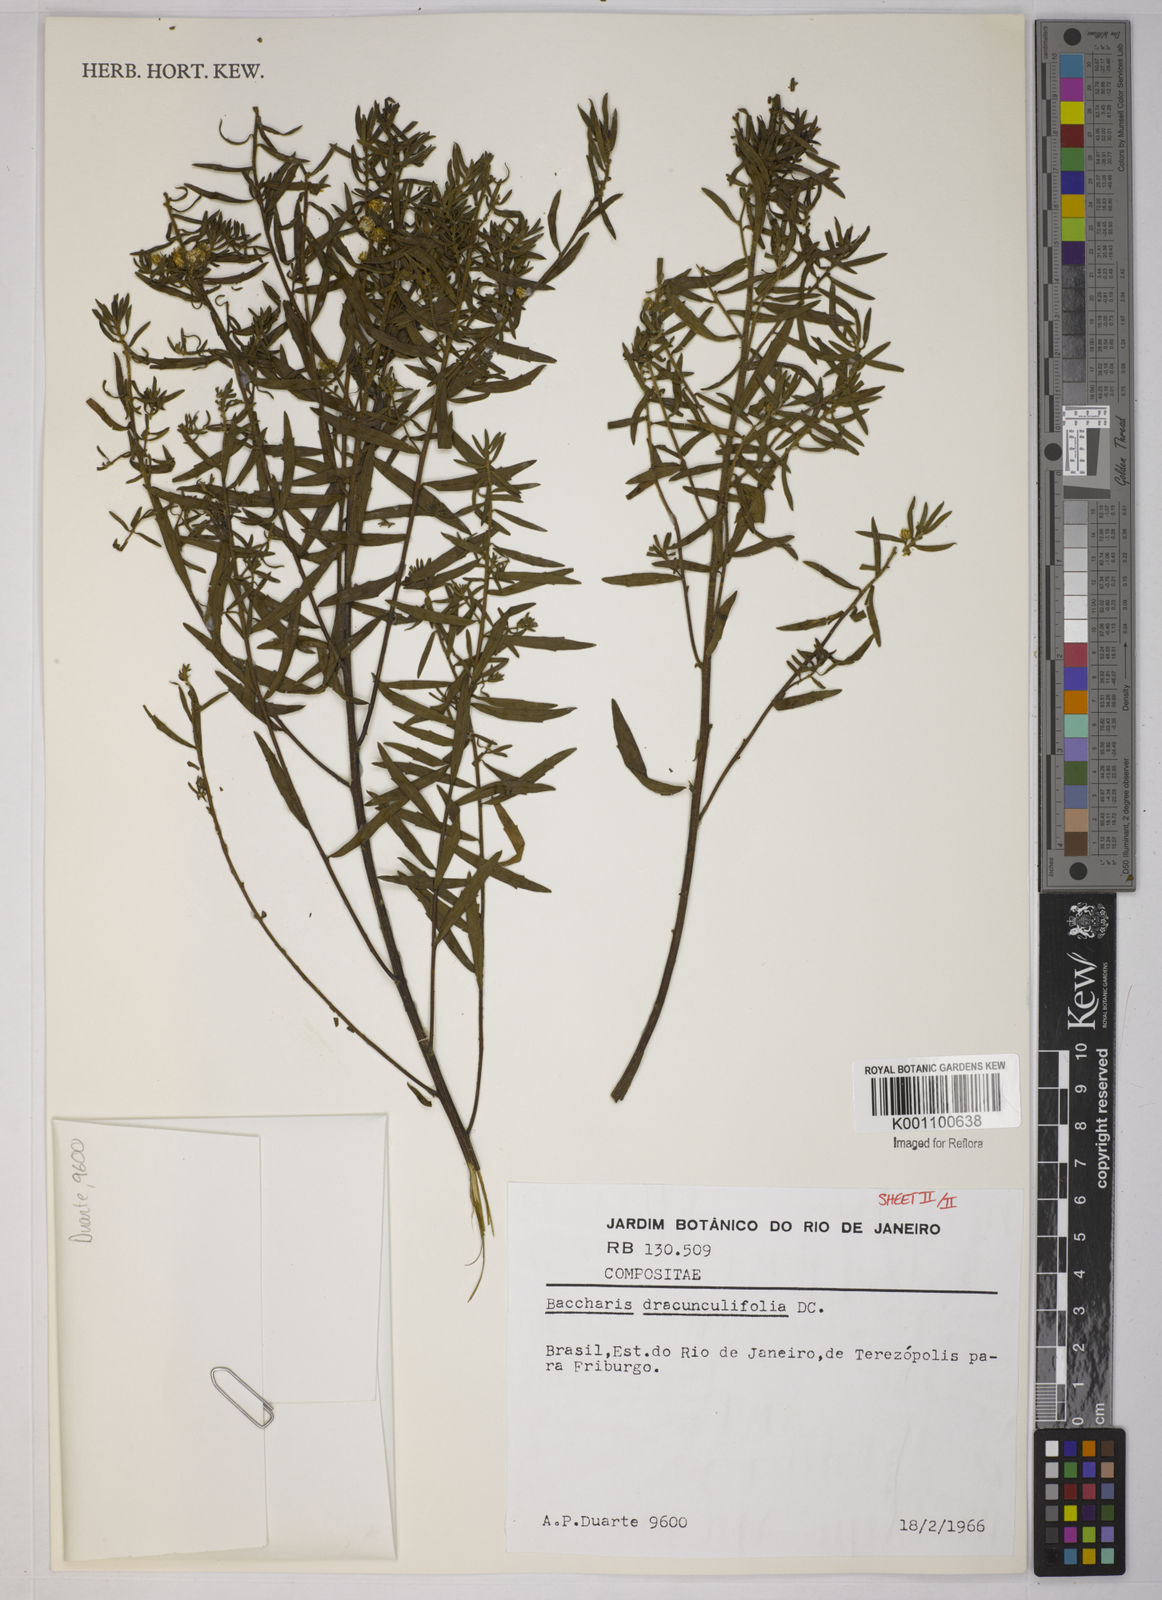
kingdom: Plantae
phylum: Tracheophyta
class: Magnoliopsida
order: Asterales
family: Asteraceae
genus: Baccharis
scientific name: Baccharis dracunculifolia
